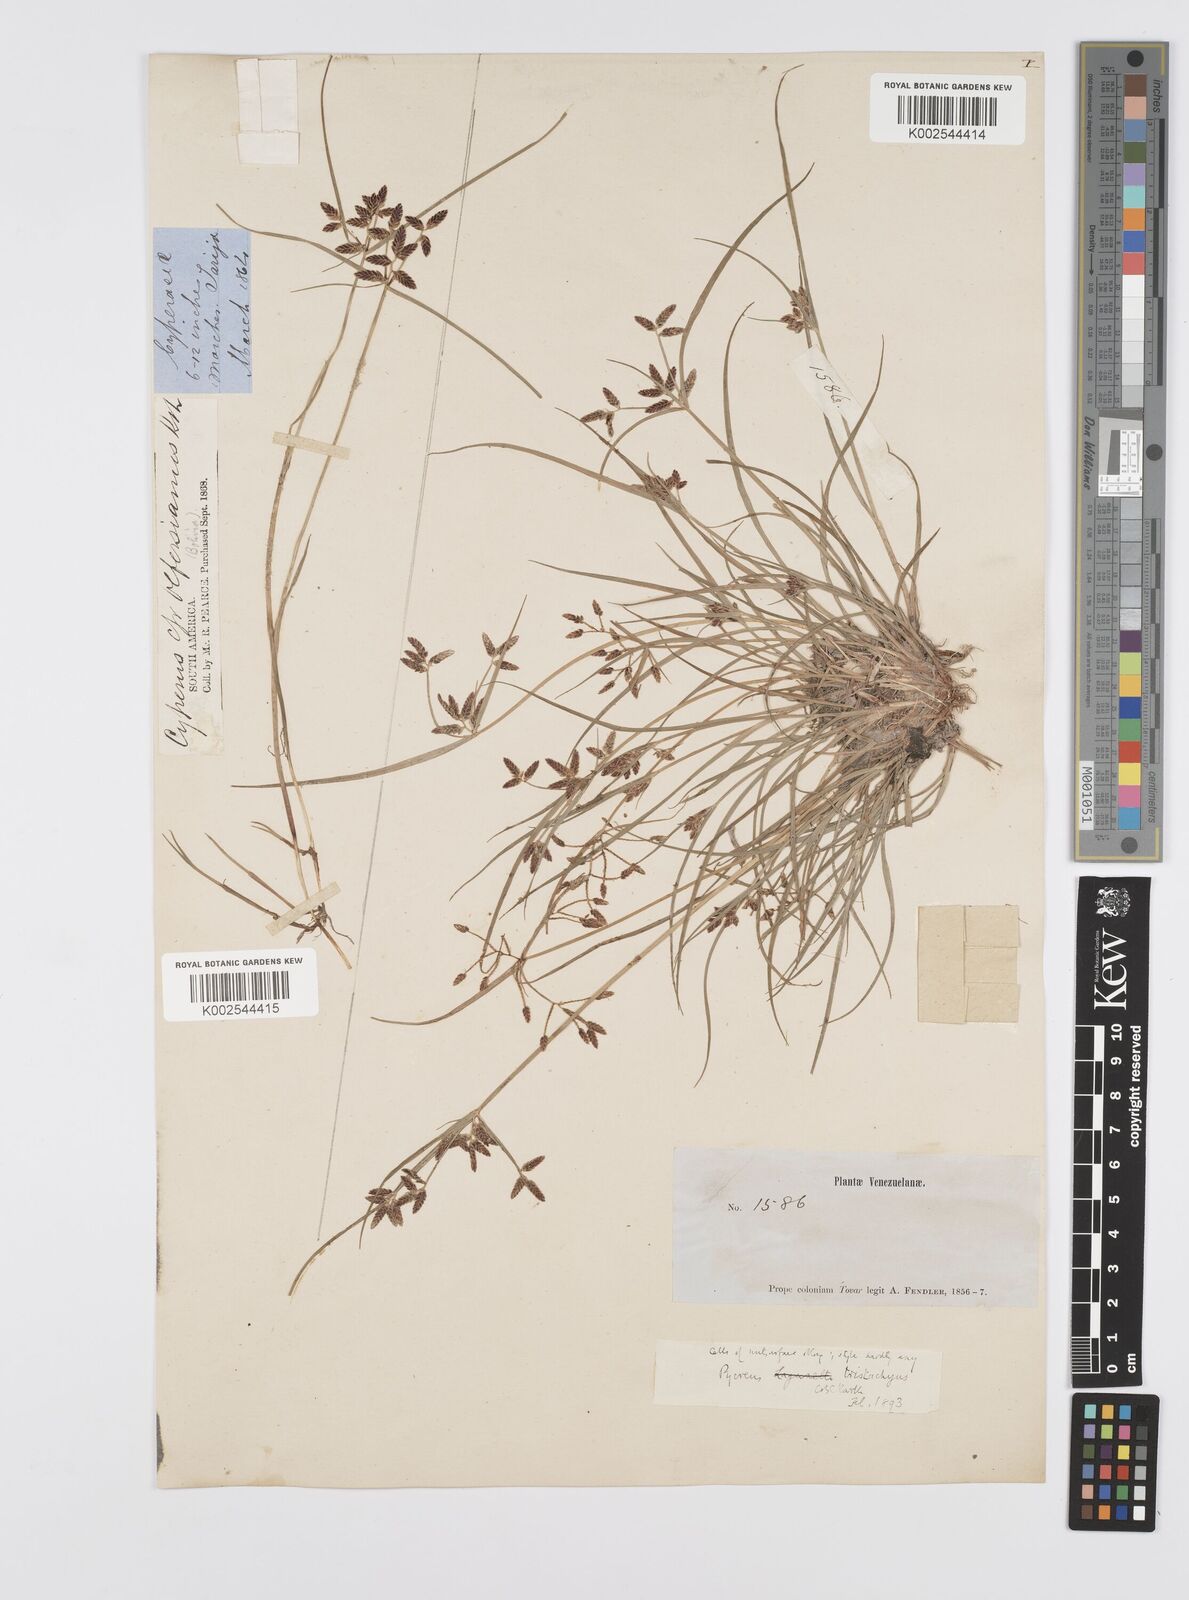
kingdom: Plantae
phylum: Tracheophyta
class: Liliopsida
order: Poales
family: Cyperaceae
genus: Cyperus
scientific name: Cyperus flavescens
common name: Yellow galingale
